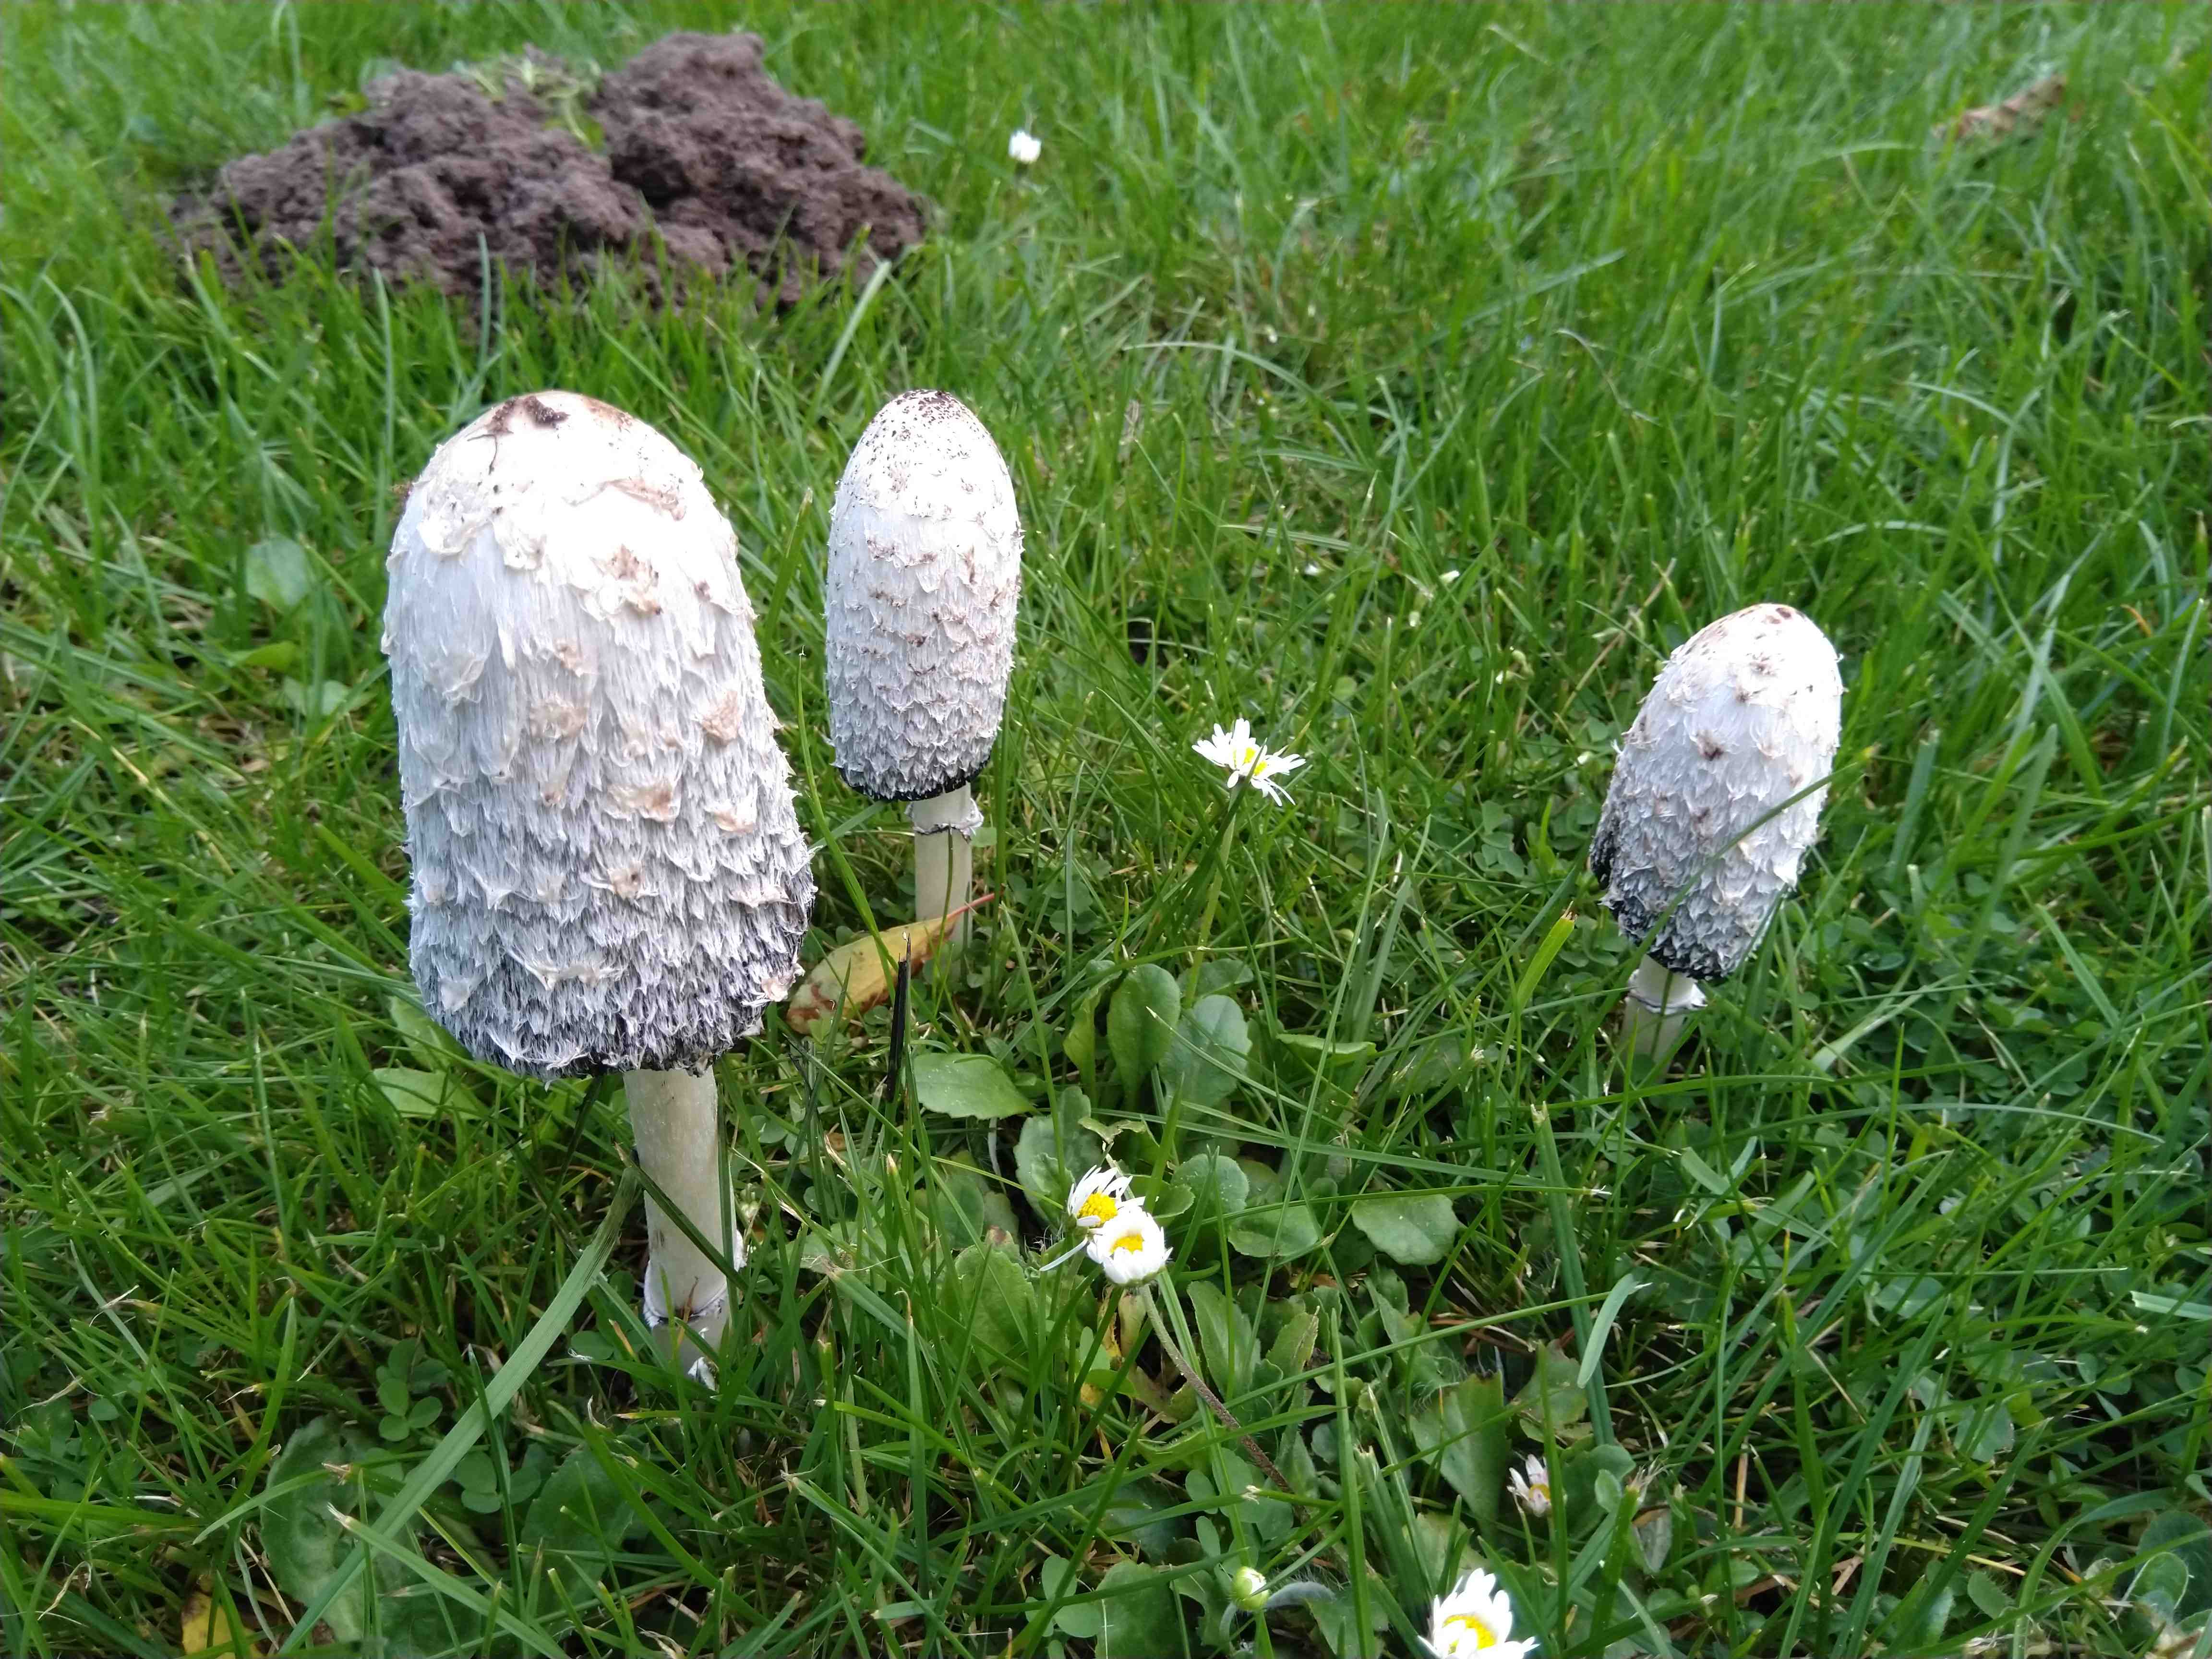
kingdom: Fungi
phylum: Basidiomycota
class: Agaricomycetes
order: Agaricales
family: Agaricaceae
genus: Coprinus
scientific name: Coprinus comatus
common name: stor parykhat
